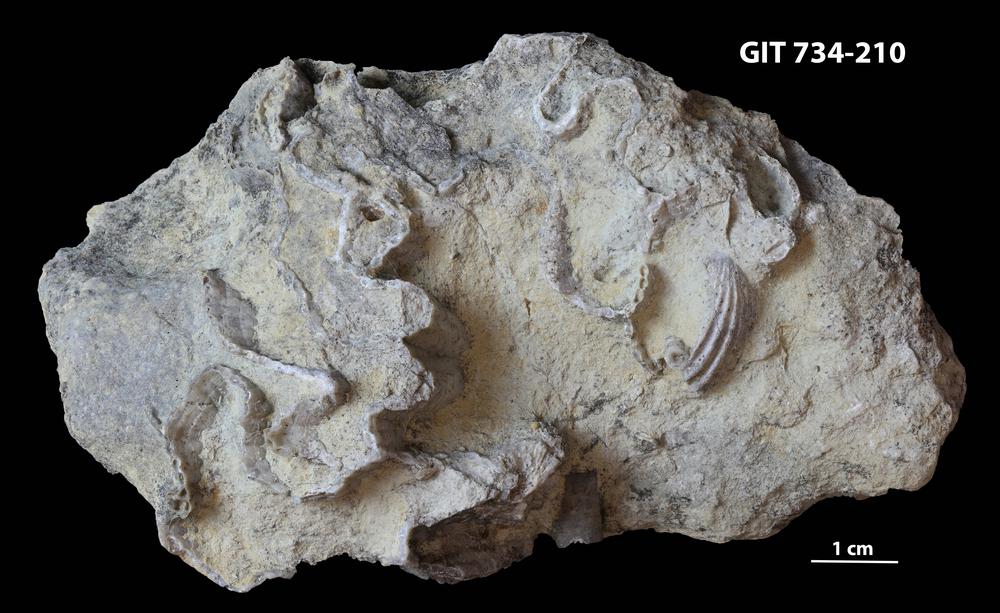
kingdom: Animalia
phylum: Cnidaria
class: Anthozoa
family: Cateniporidae
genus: Catenipora
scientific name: Catenipora
